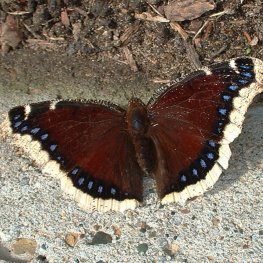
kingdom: Animalia
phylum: Arthropoda
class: Insecta
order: Lepidoptera
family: Nymphalidae
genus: Nymphalis
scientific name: Nymphalis antiopa
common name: Mourning Cloak
